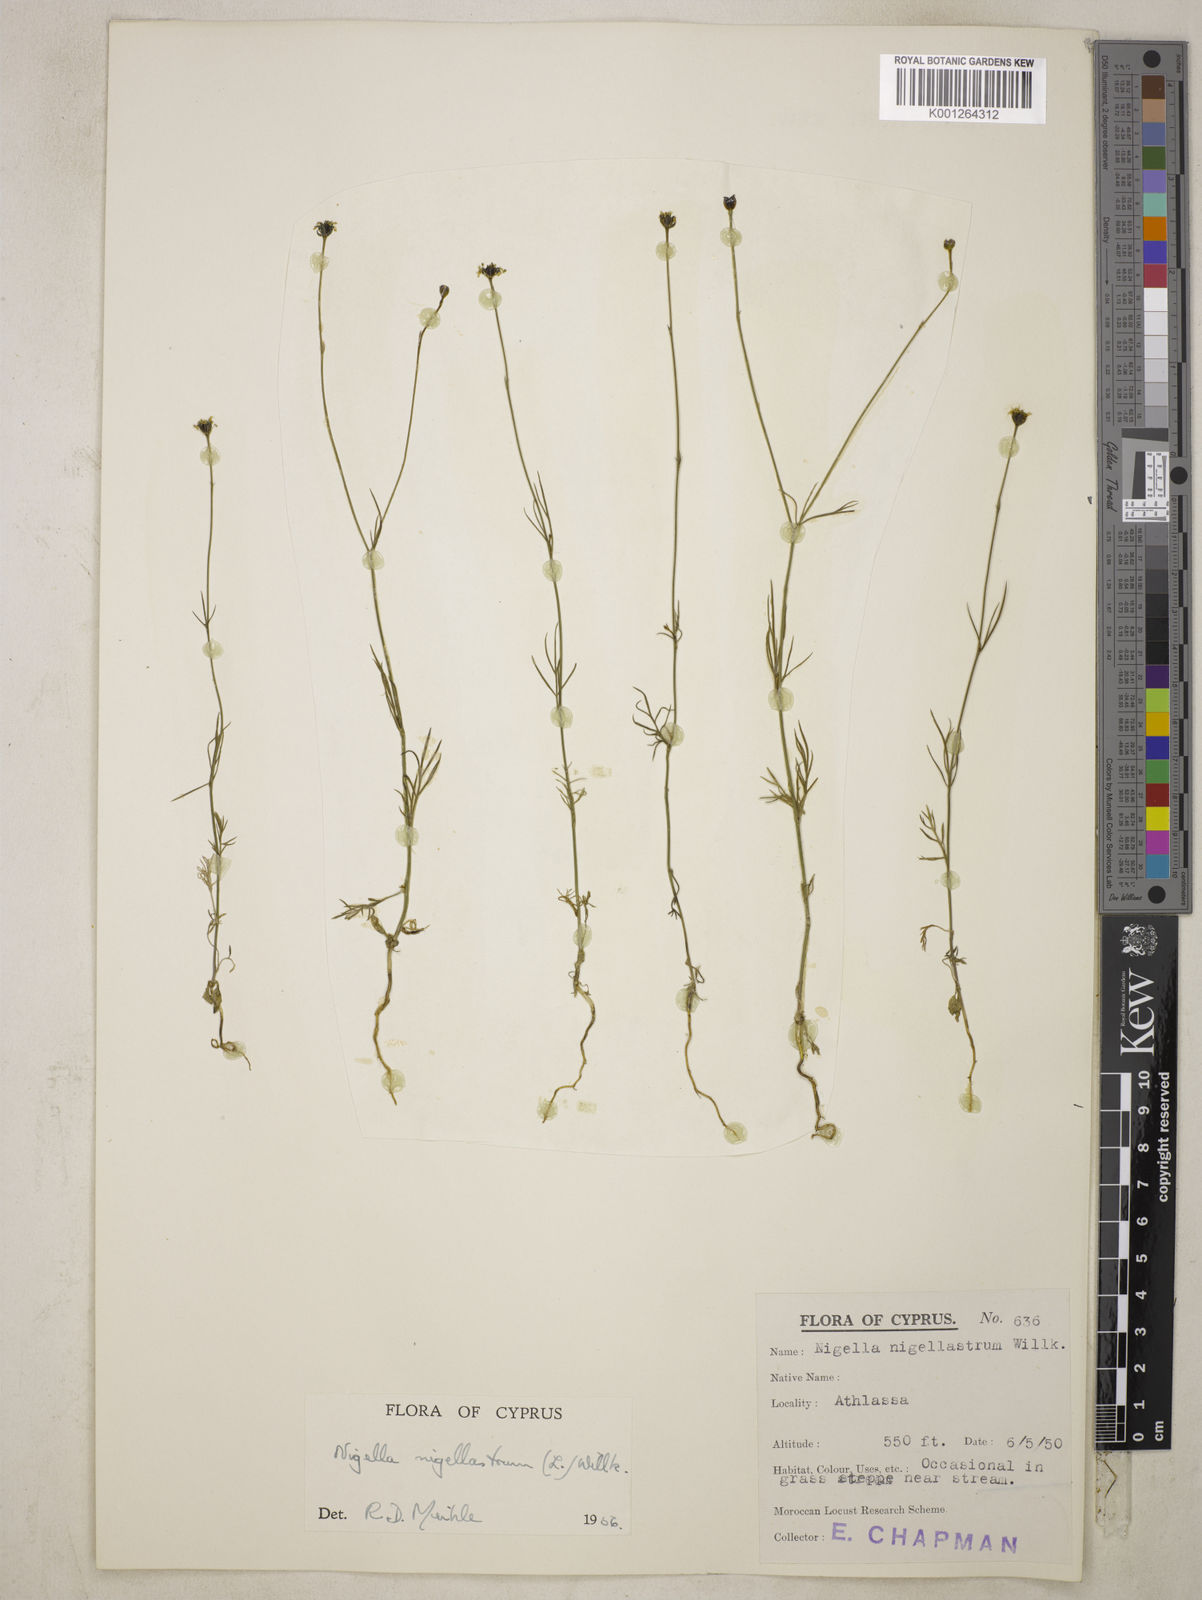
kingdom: Plantae
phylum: Tracheophyta
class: Magnoliopsida
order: Ranunculales
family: Ranunculaceae
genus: Garidella
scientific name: Garidella nigellastrum
